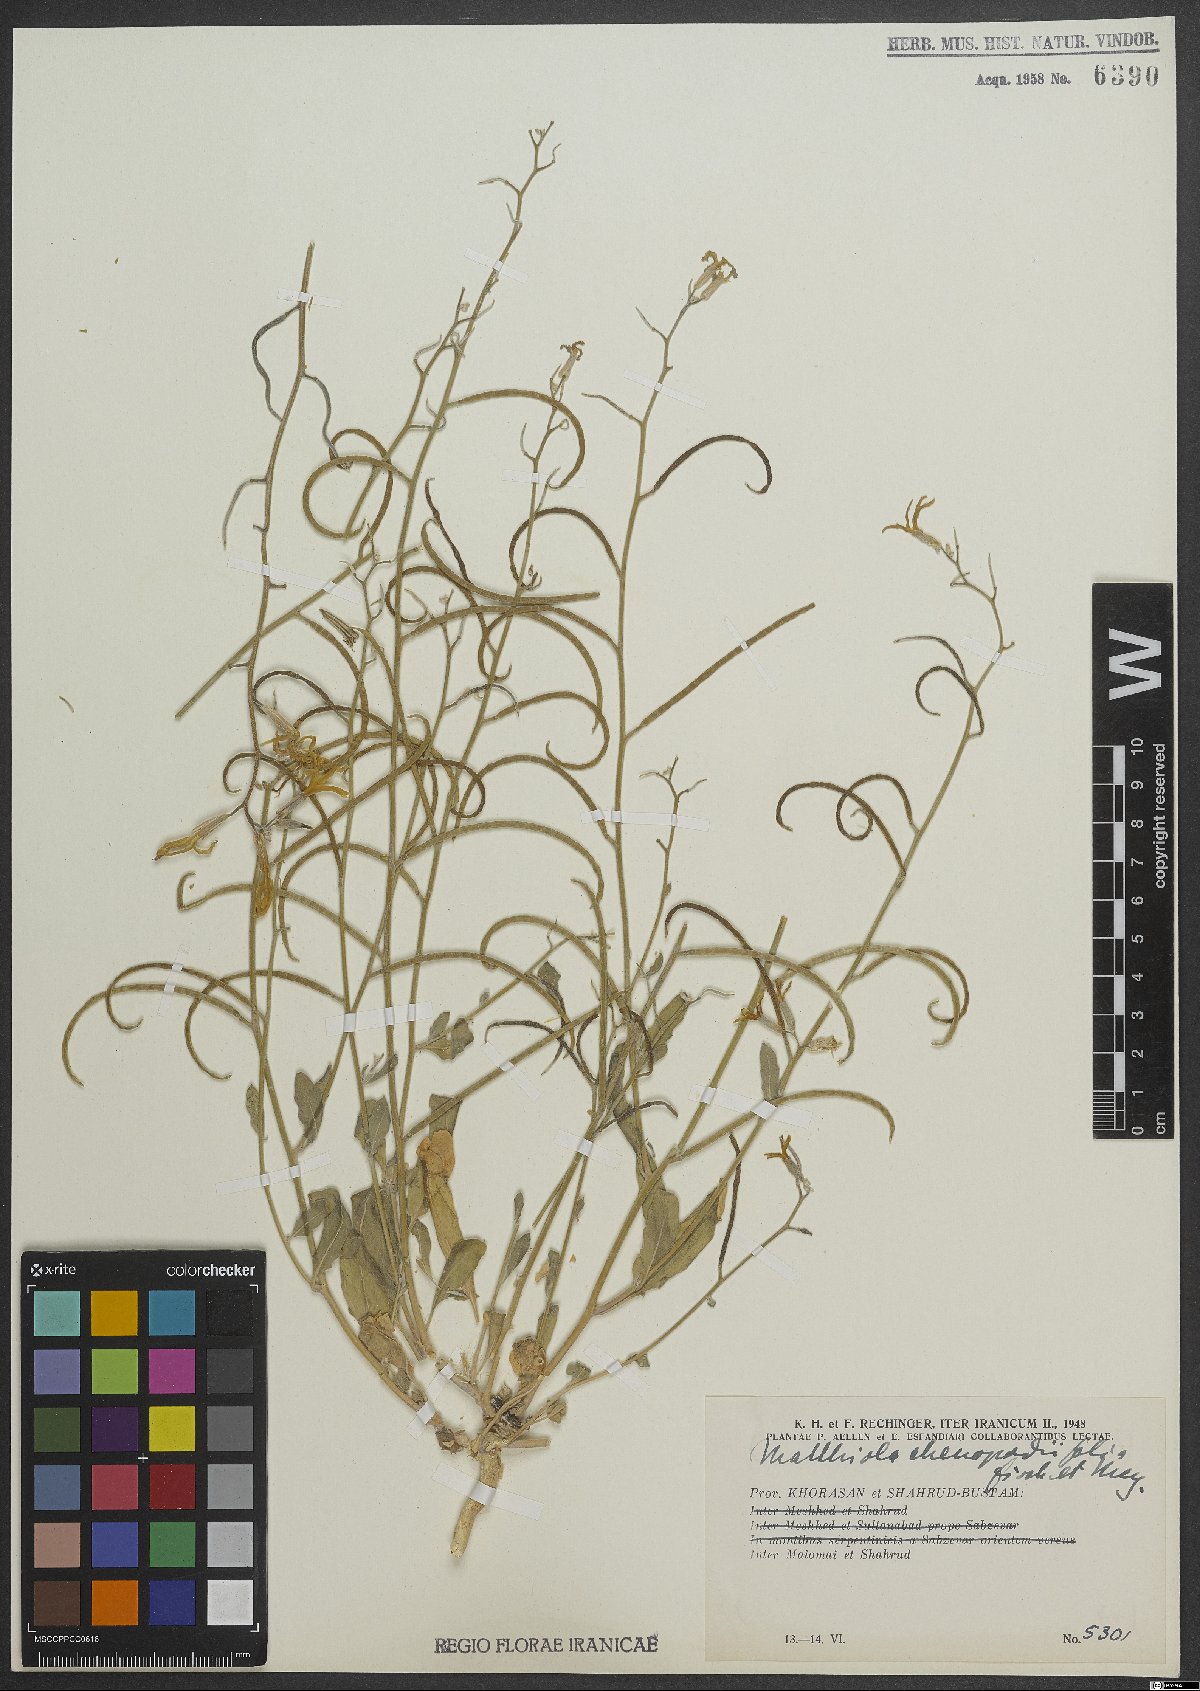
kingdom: Plantae
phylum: Tracheophyta
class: Magnoliopsida
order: Brassicales
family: Brassicaceae
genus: Matthiola
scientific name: Matthiola chenopodiifolia
